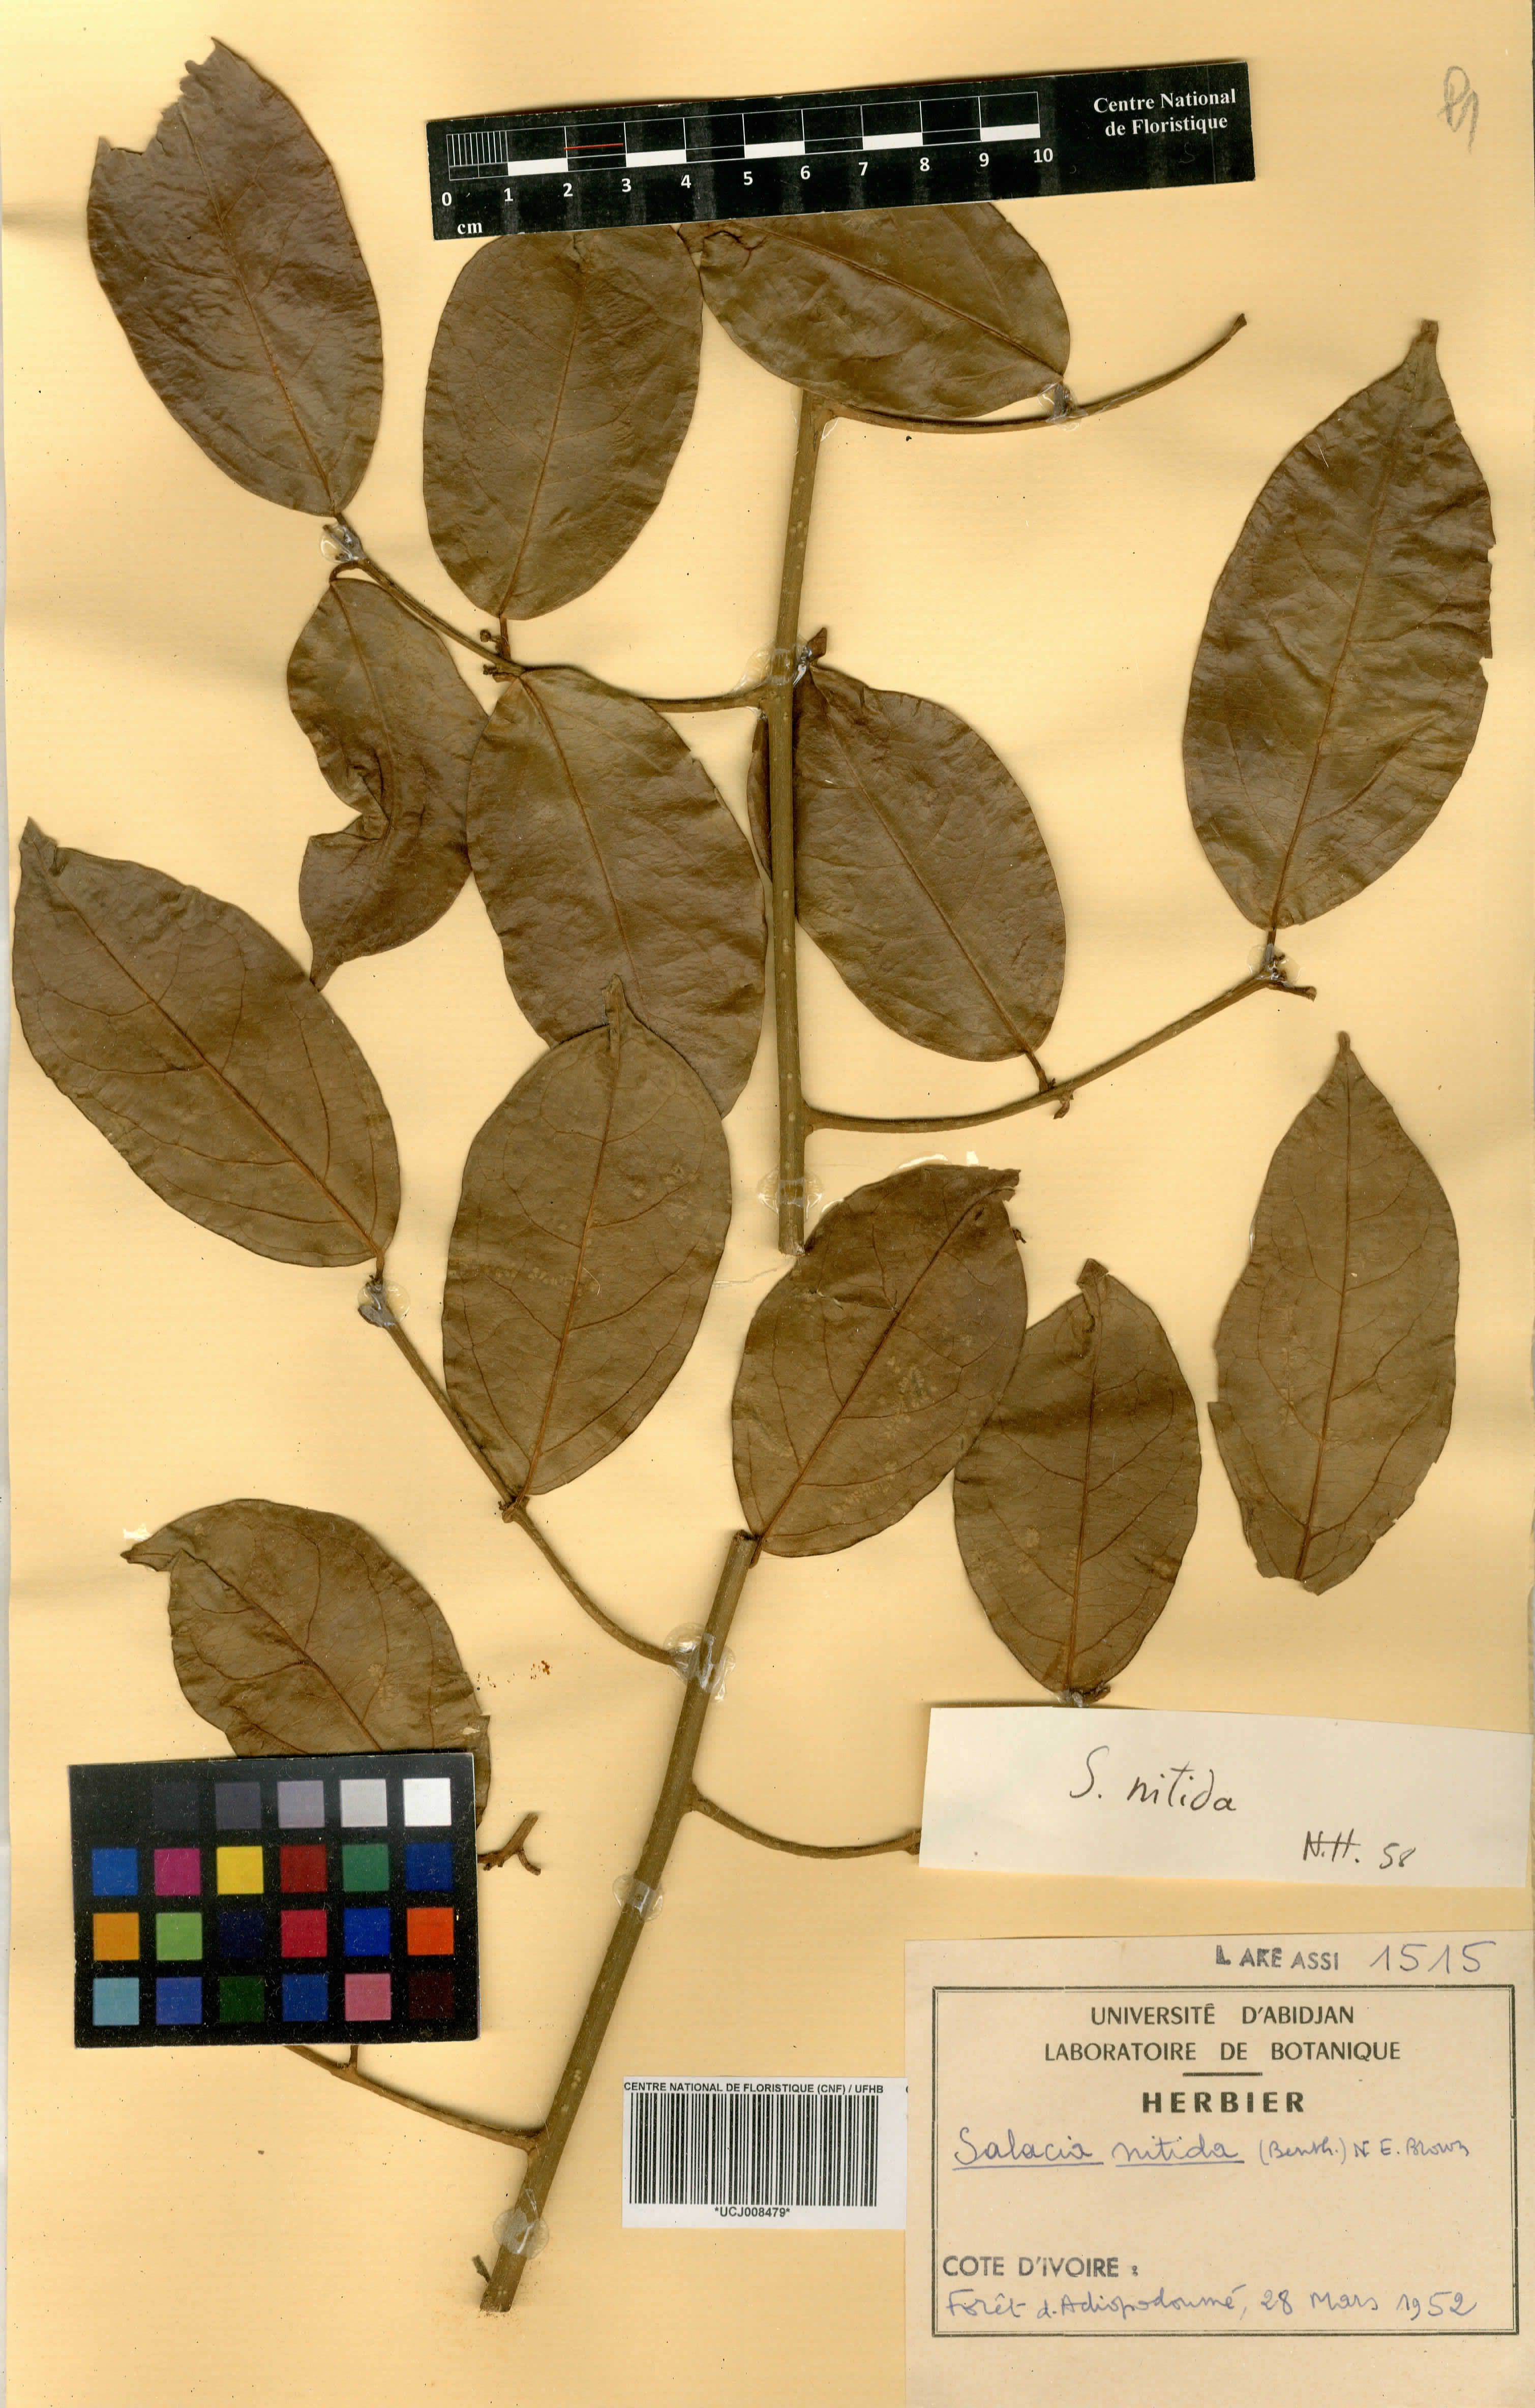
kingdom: Plantae
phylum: Tracheophyta
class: Magnoliopsida
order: Celastrales
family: Celastraceae
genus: Salacia
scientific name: Salacia nitida
